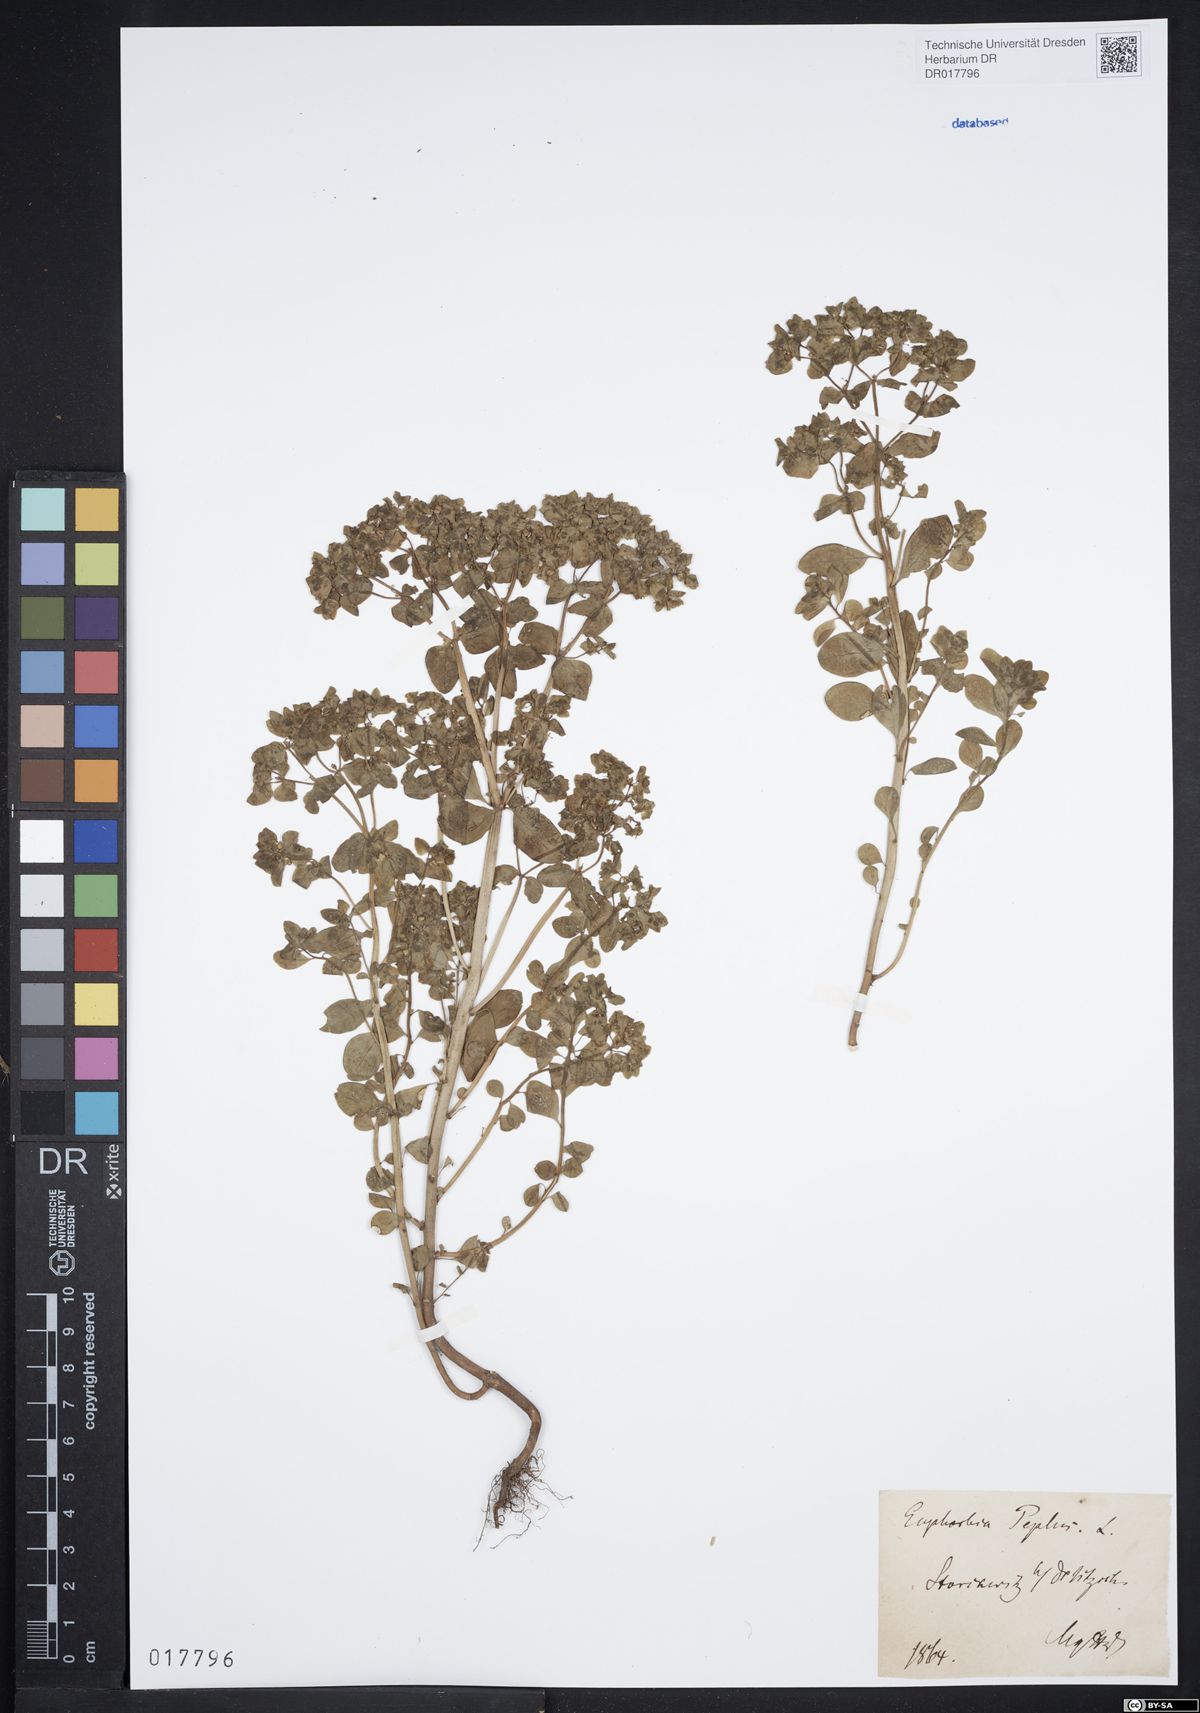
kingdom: Plantae
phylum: Tracheophyta
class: Magnoliopsida
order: Malpighiales
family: Euphorbiaceae
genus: Euphorbia
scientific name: Euphorbia peplus
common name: Petty spurge
